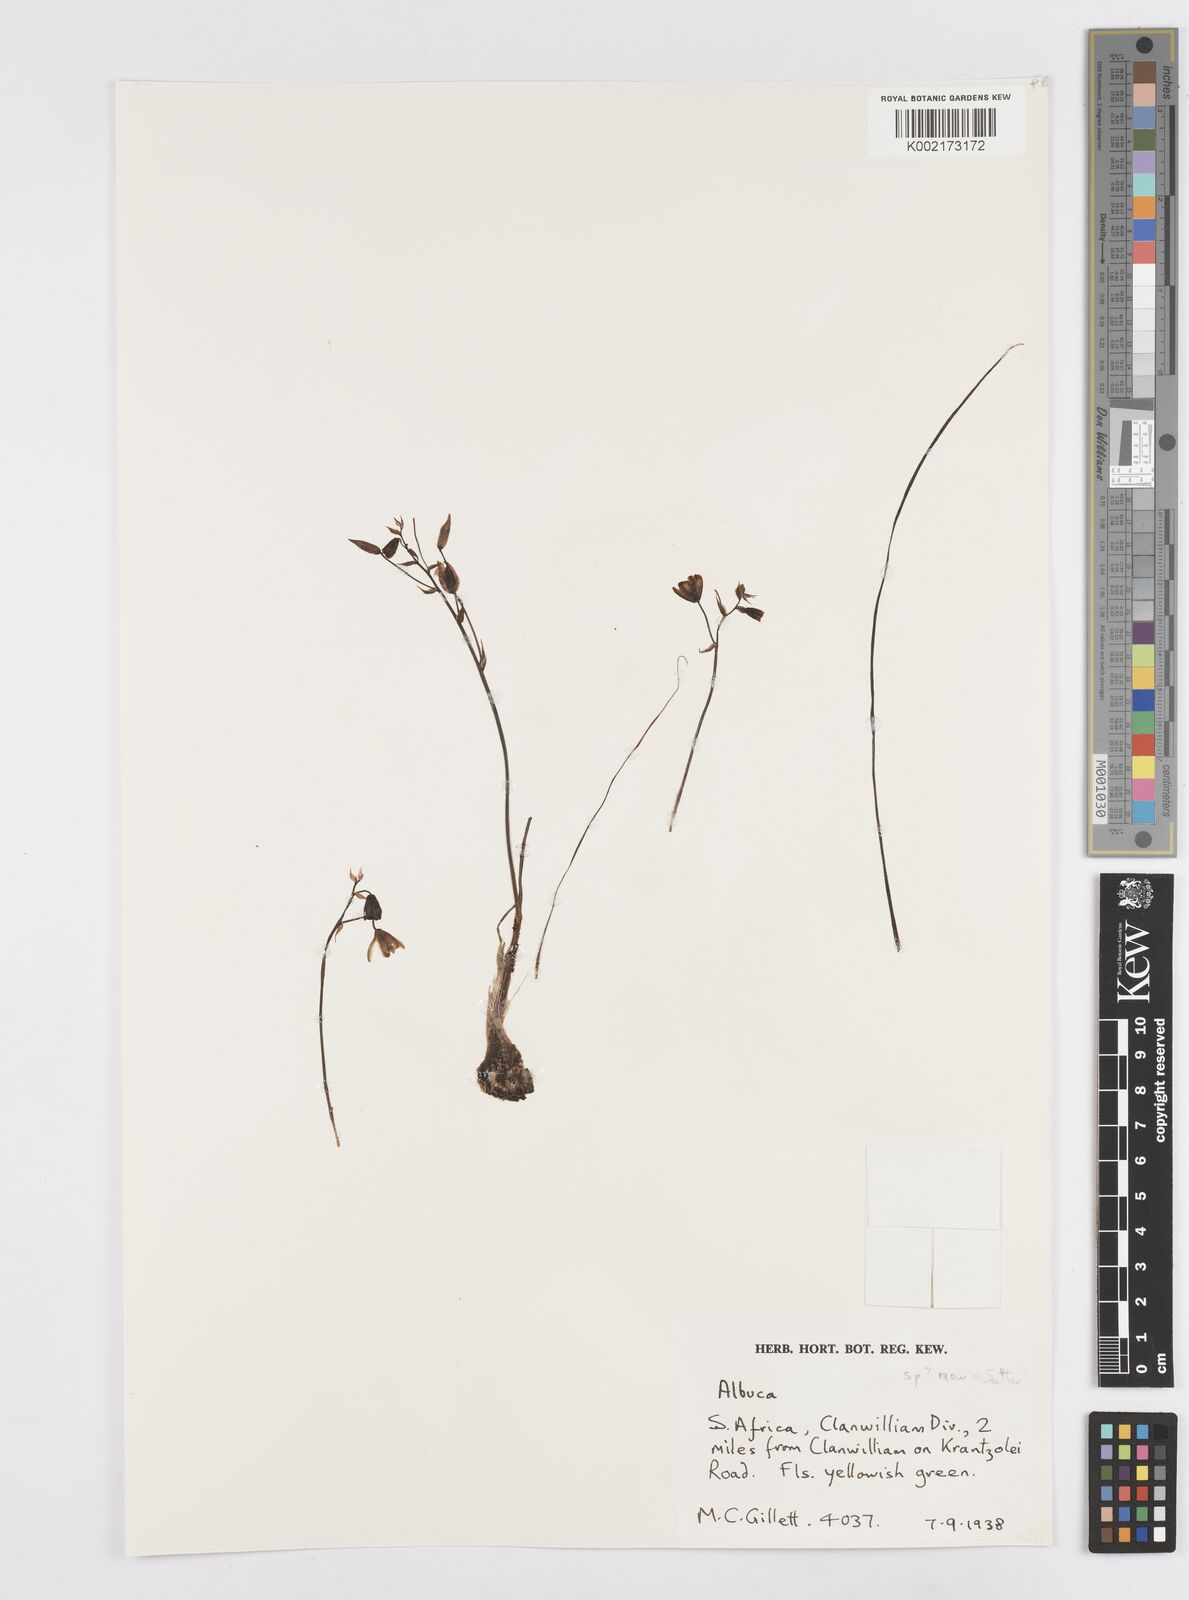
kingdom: Plantae
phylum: Tracheophyta
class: Liliopsida
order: Asparagales
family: Asparagaceae
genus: Albuca
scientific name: Albuca
